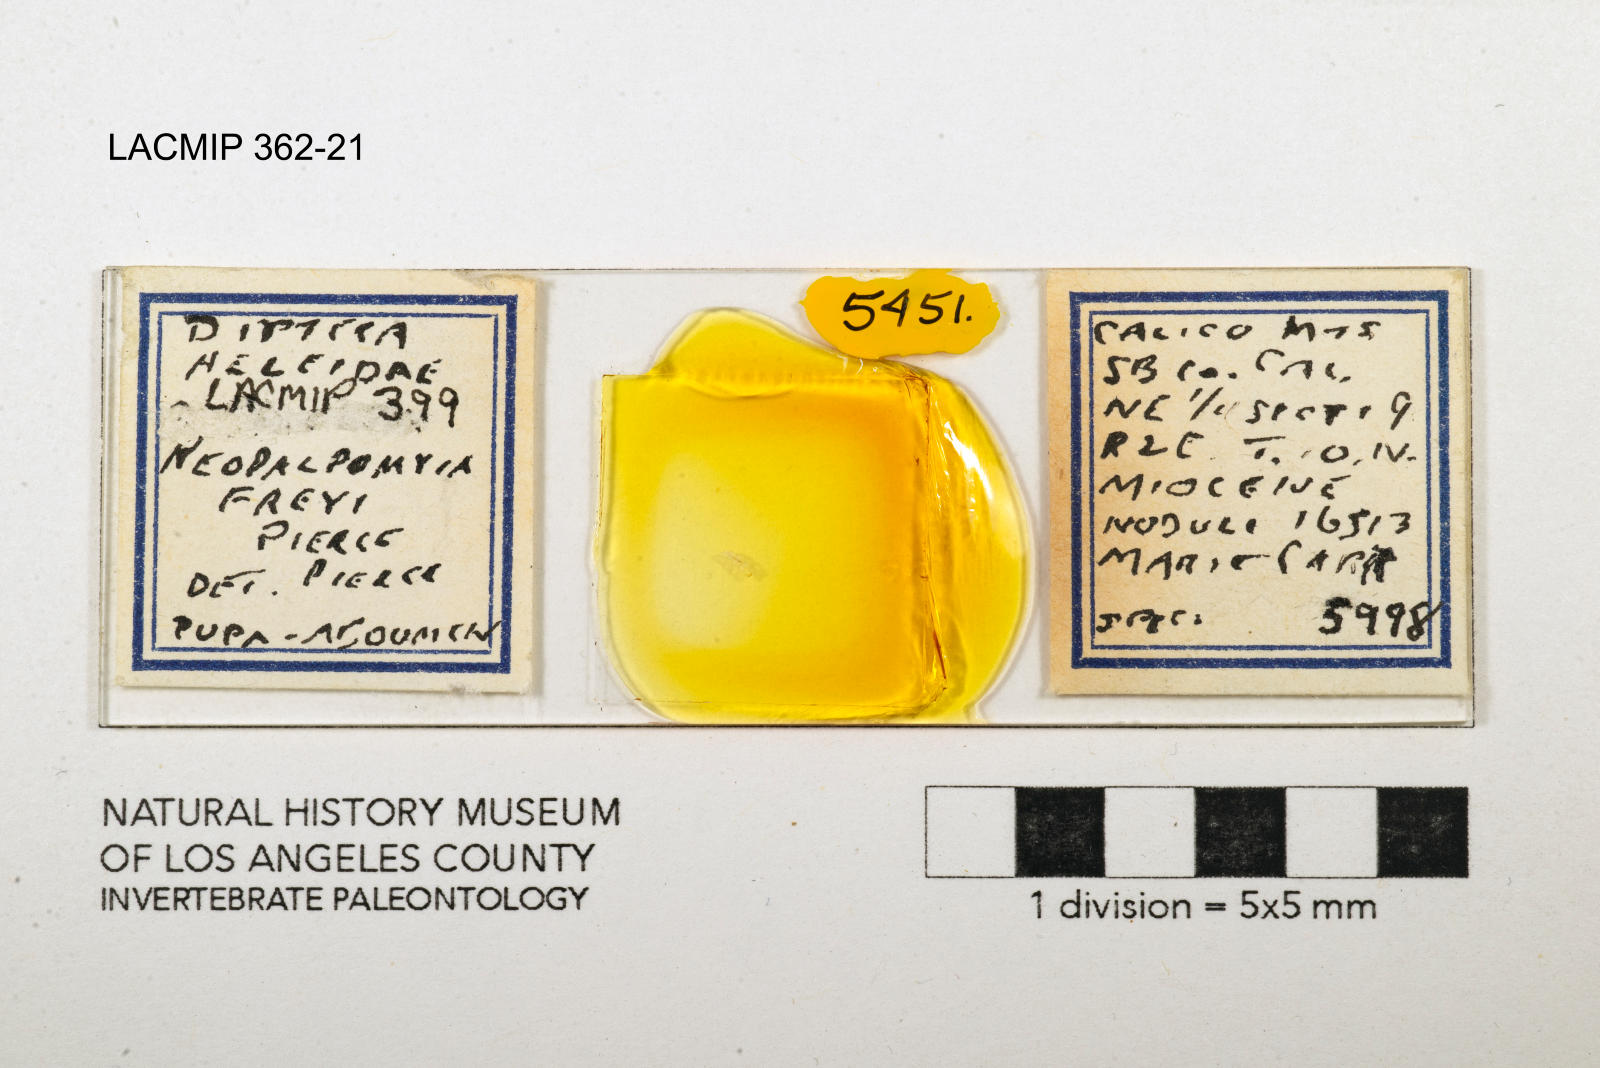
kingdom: Animalia
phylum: Arthropoda
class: Insecta
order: Diptera
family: Ceratopogonidae
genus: Palpomyia
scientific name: Palpomyia freyi
